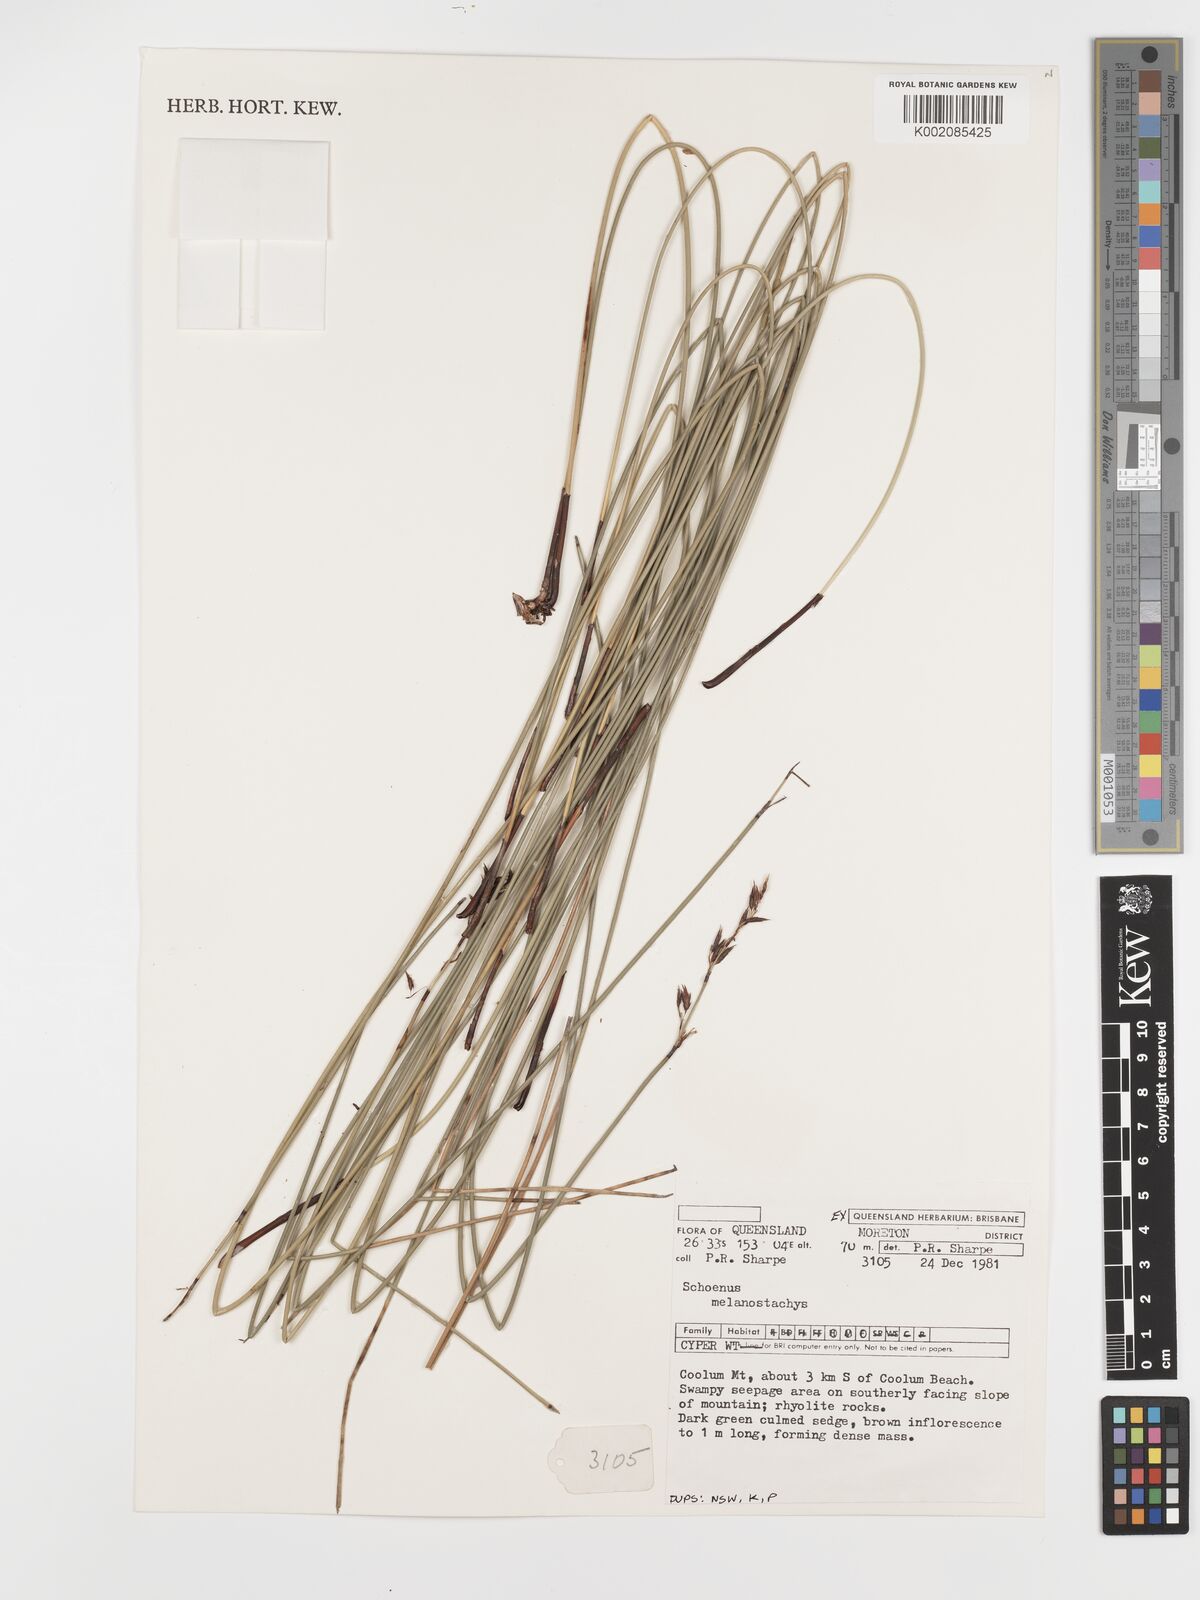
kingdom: Plantae
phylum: Tracheophyta
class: Liliopsida
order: Poales
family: Cyperaceae
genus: Schoenus
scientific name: Schoenus melanostachys
